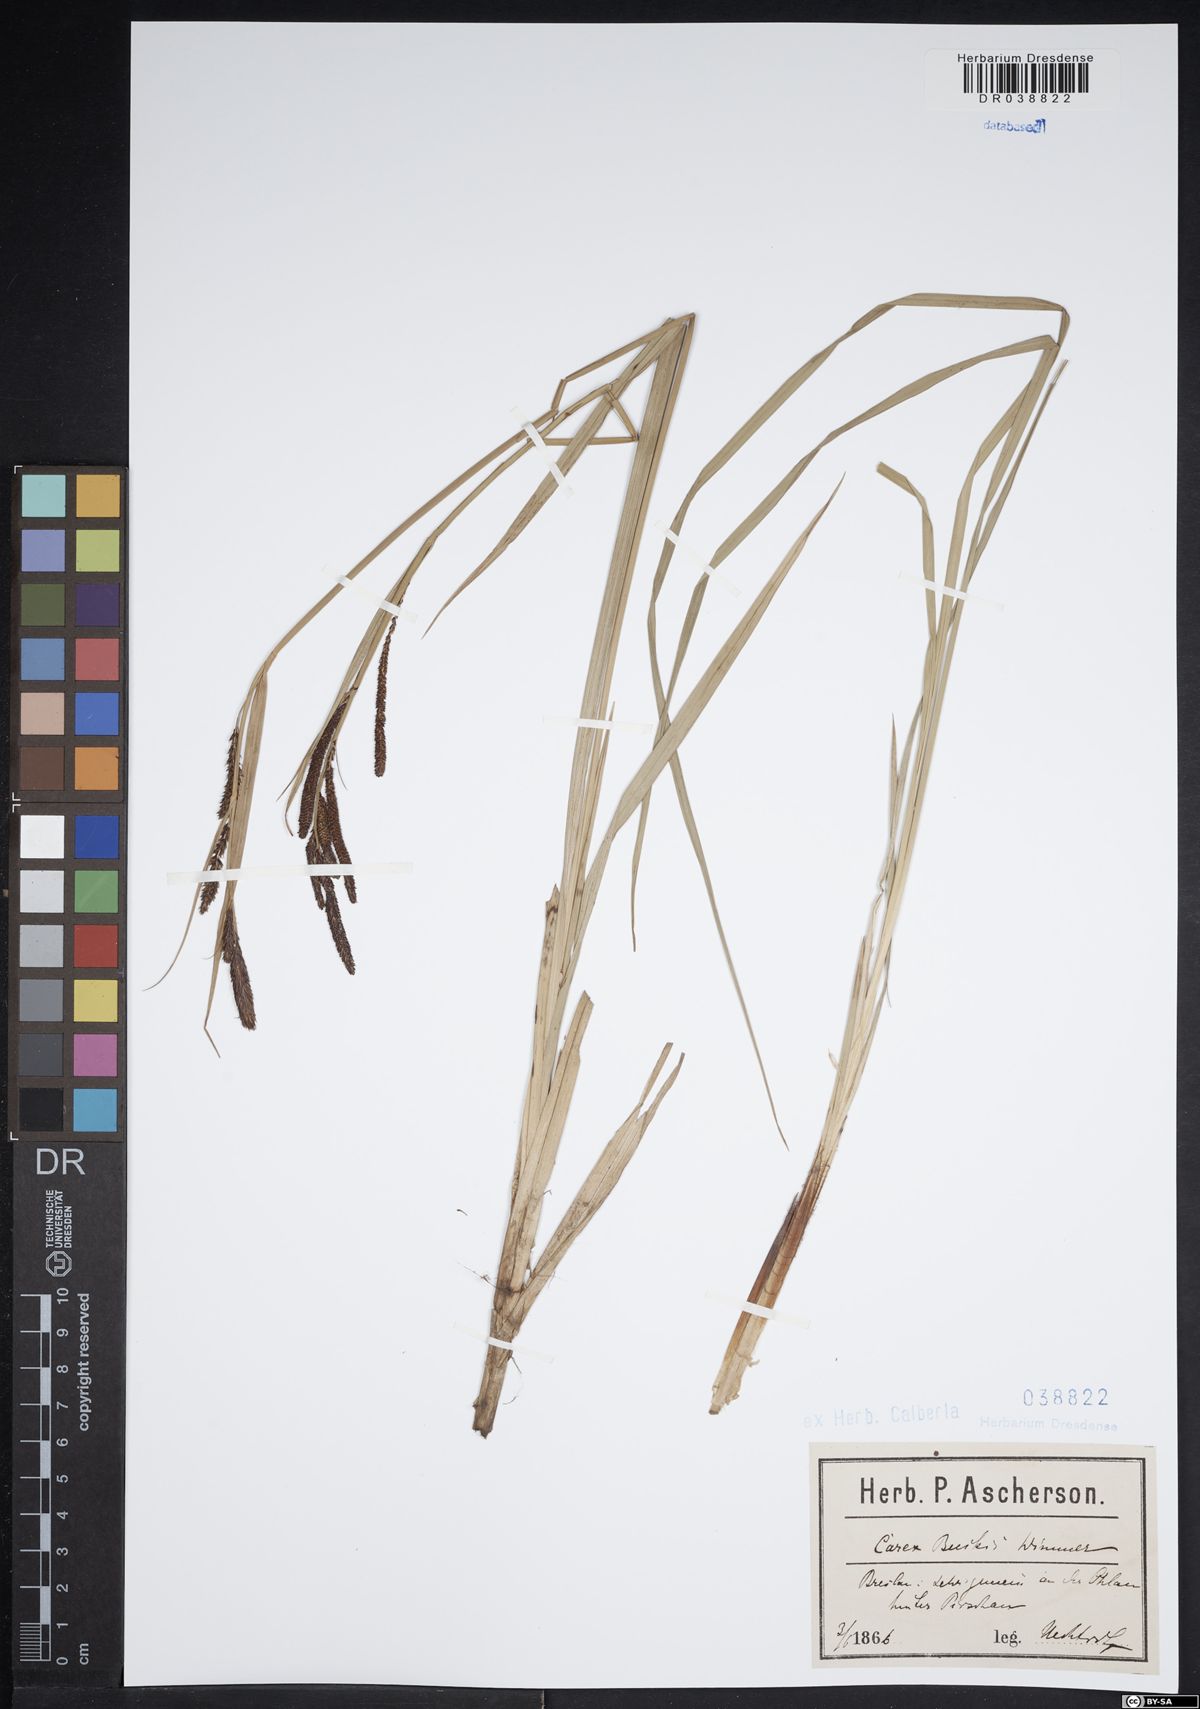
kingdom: Plantae
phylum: Tracheophyta
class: Liliopsida
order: Poales
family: Cyperaceae
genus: Carex
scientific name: Carex buekii
